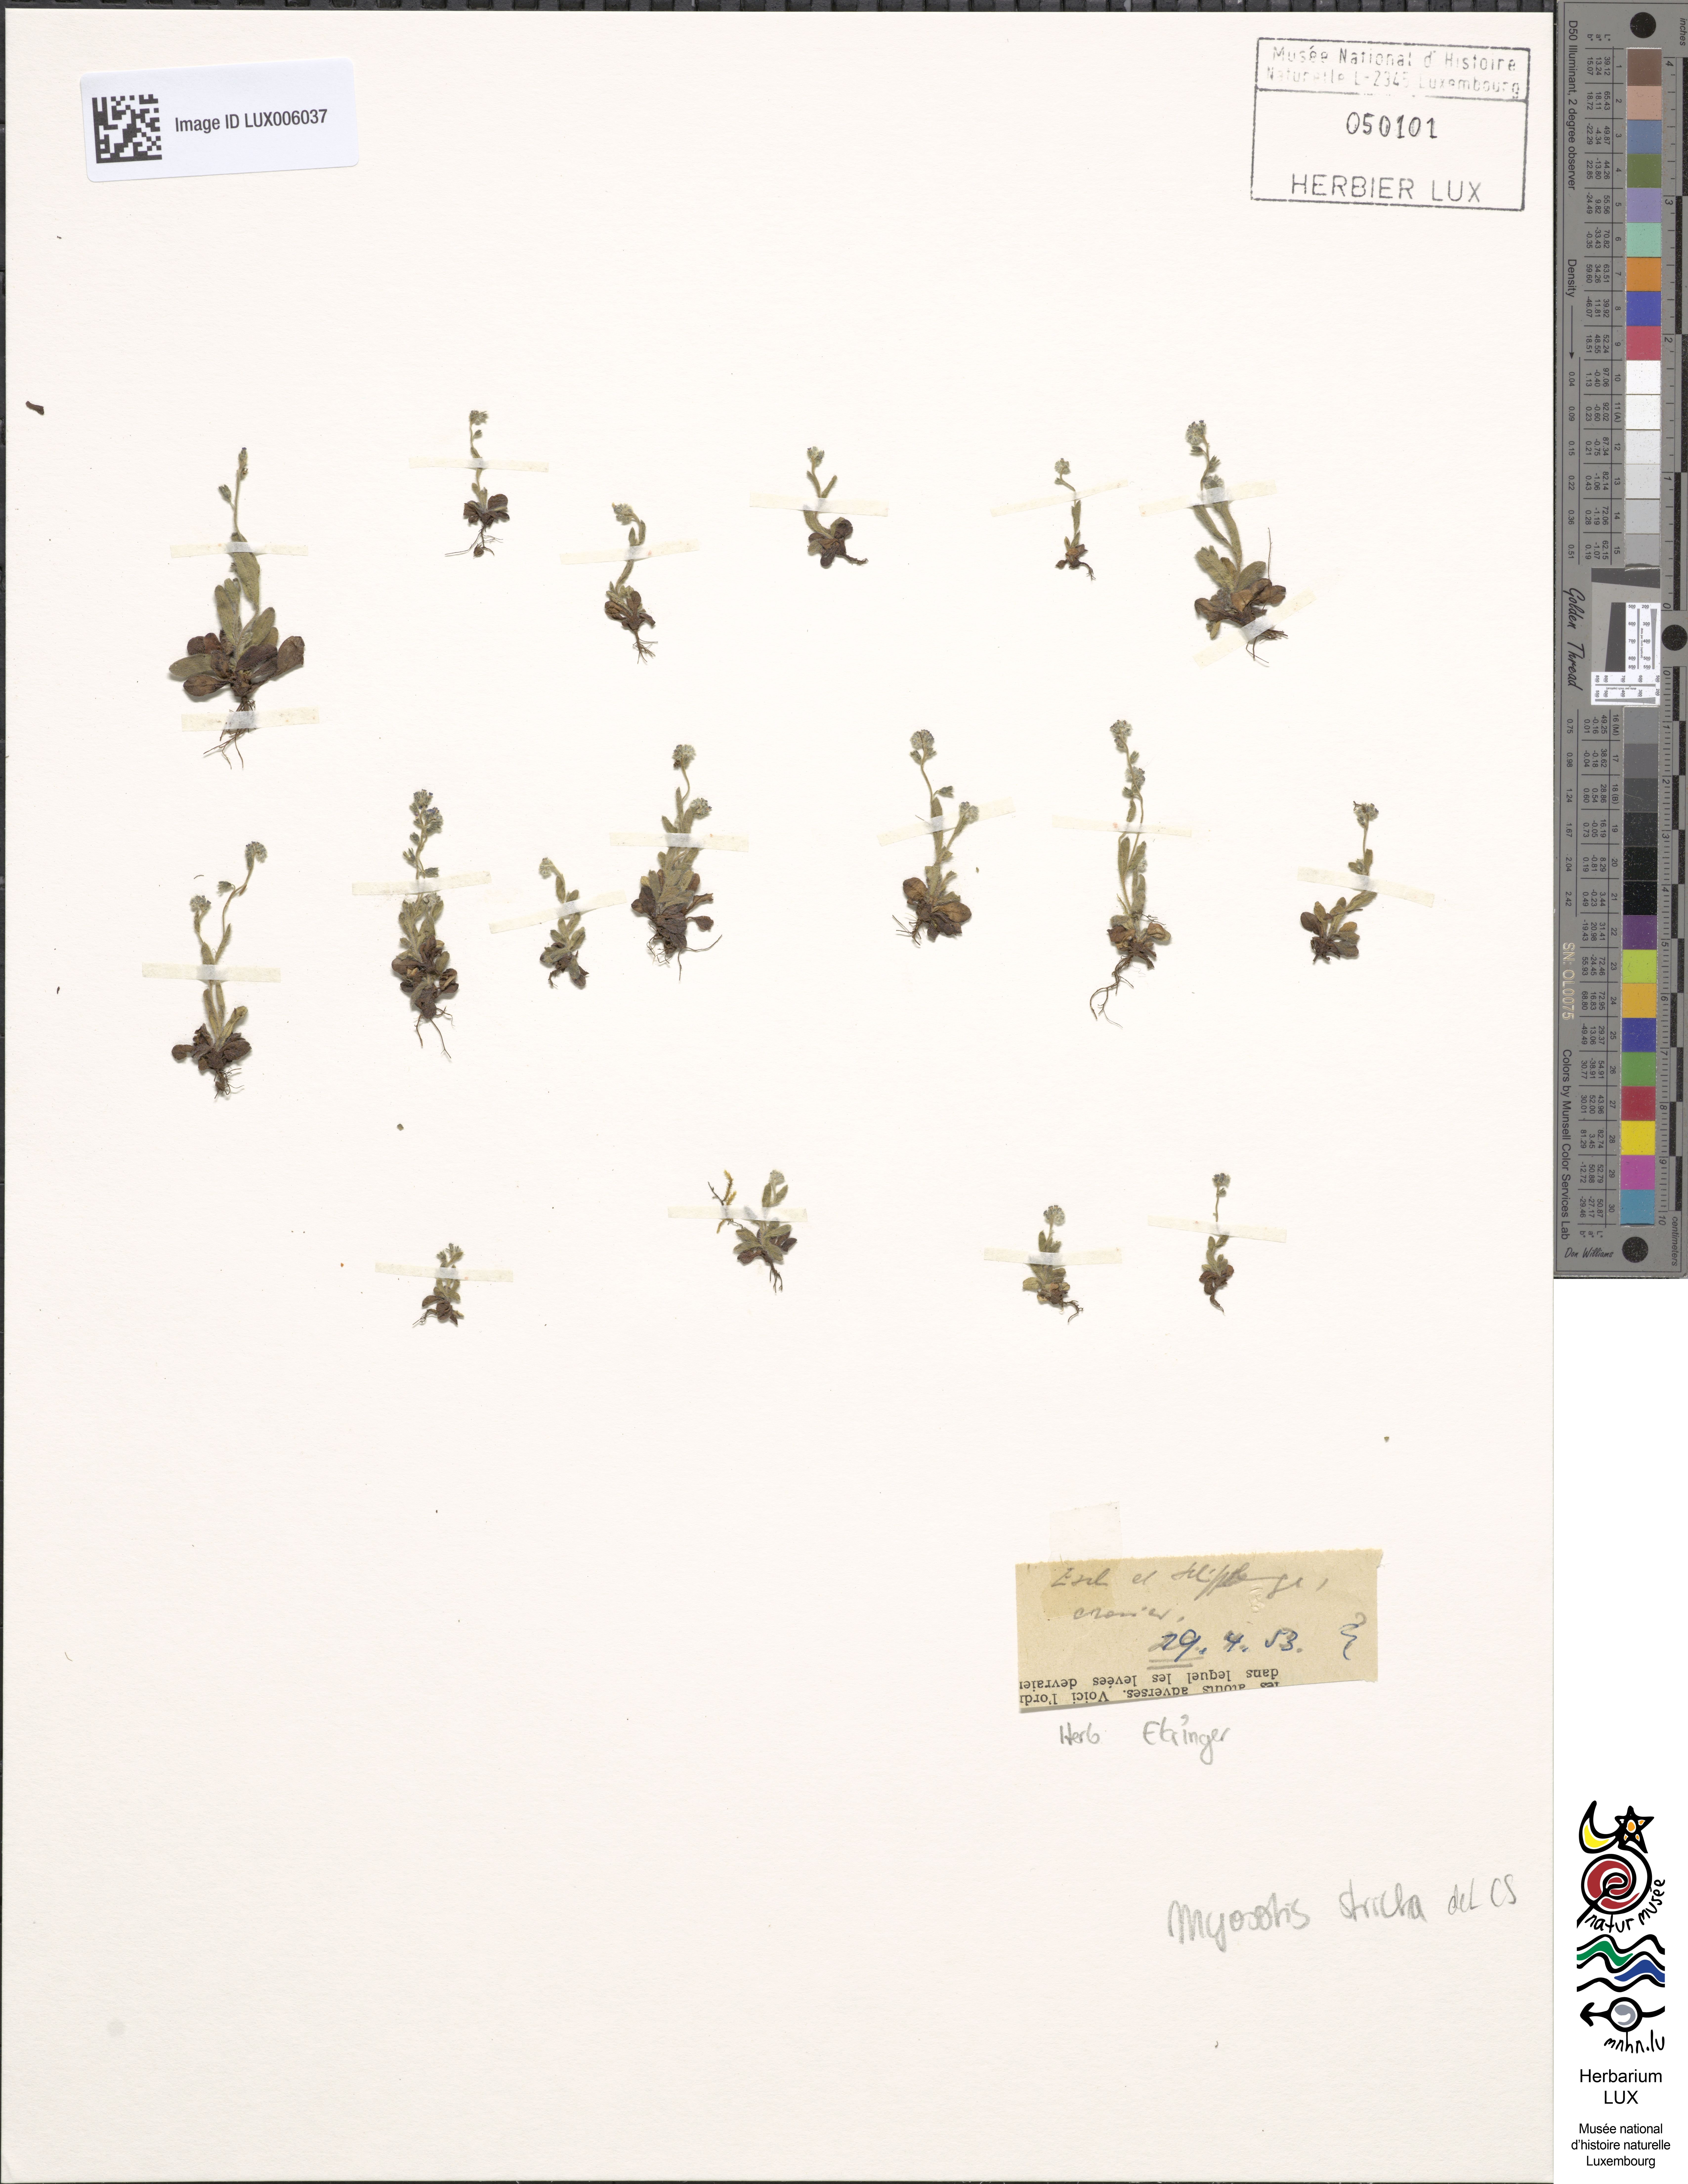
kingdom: Plantae
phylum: Tracheophyta
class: Magnoliopsida
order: Boraginales
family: Boraginaceae
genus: Myosotis
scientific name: Myosotis stricta
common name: Strict forget-me-not
